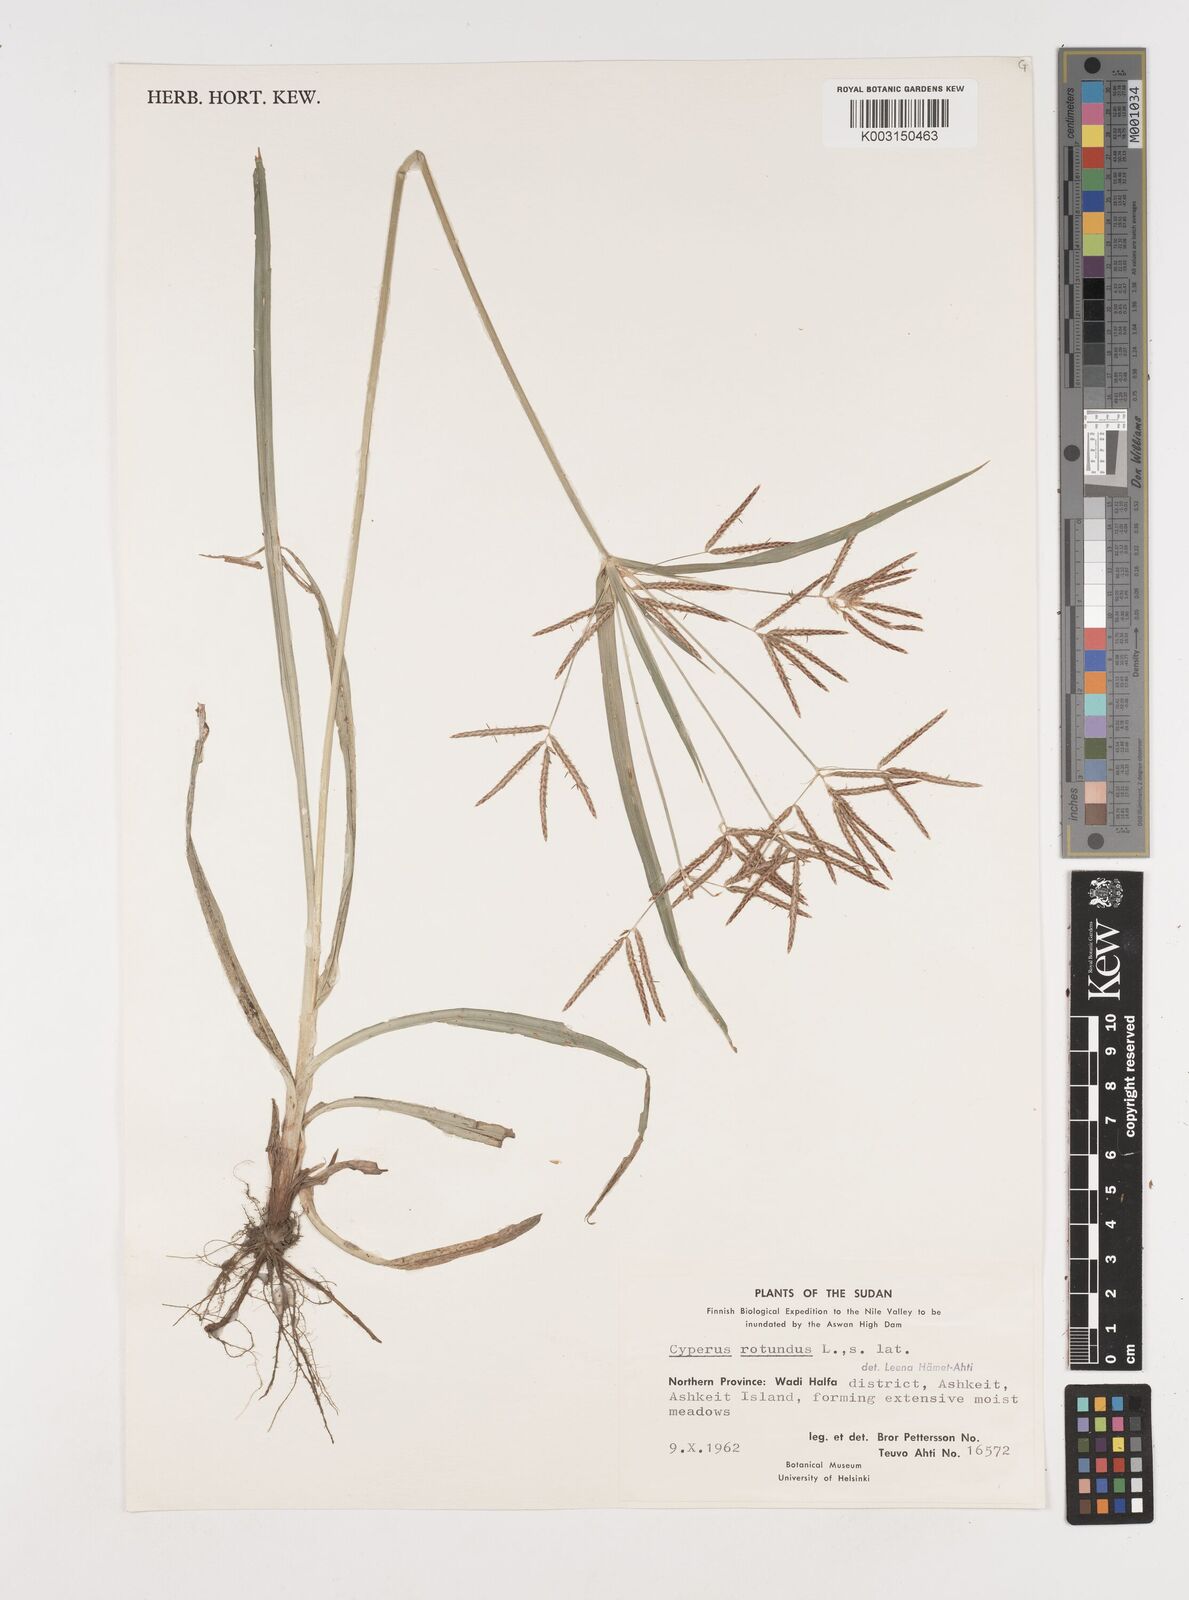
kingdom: Plantae
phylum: Tracheophyta
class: Liliopsida
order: Poales
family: Cyperaceae
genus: Cyperus
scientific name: Cyperus rotundus
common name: Nutgrass
